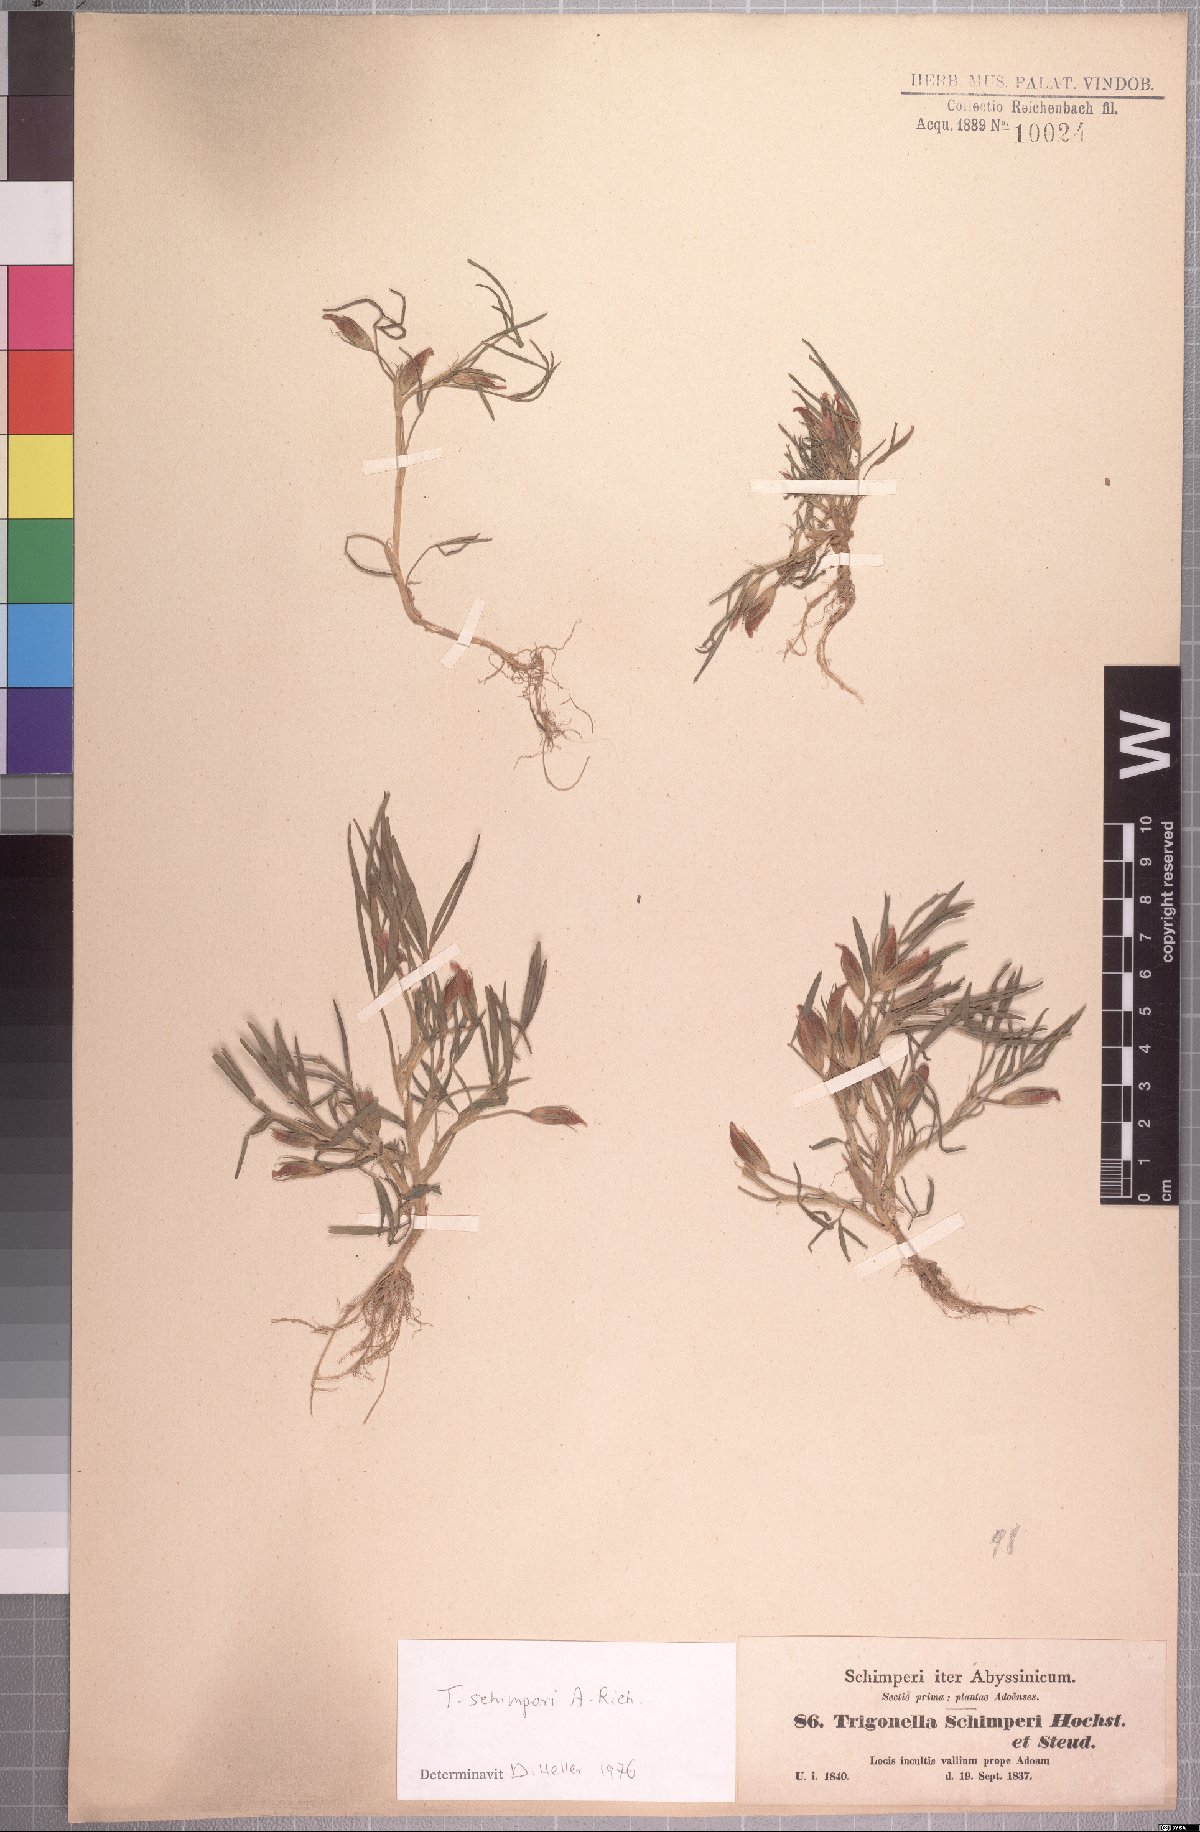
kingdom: Plantae
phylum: Tracheophyta
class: Magnoliopsida
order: Fabales
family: Fabaceae
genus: Trifolium
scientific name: Trifolium schimperi
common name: Schimper's clover
